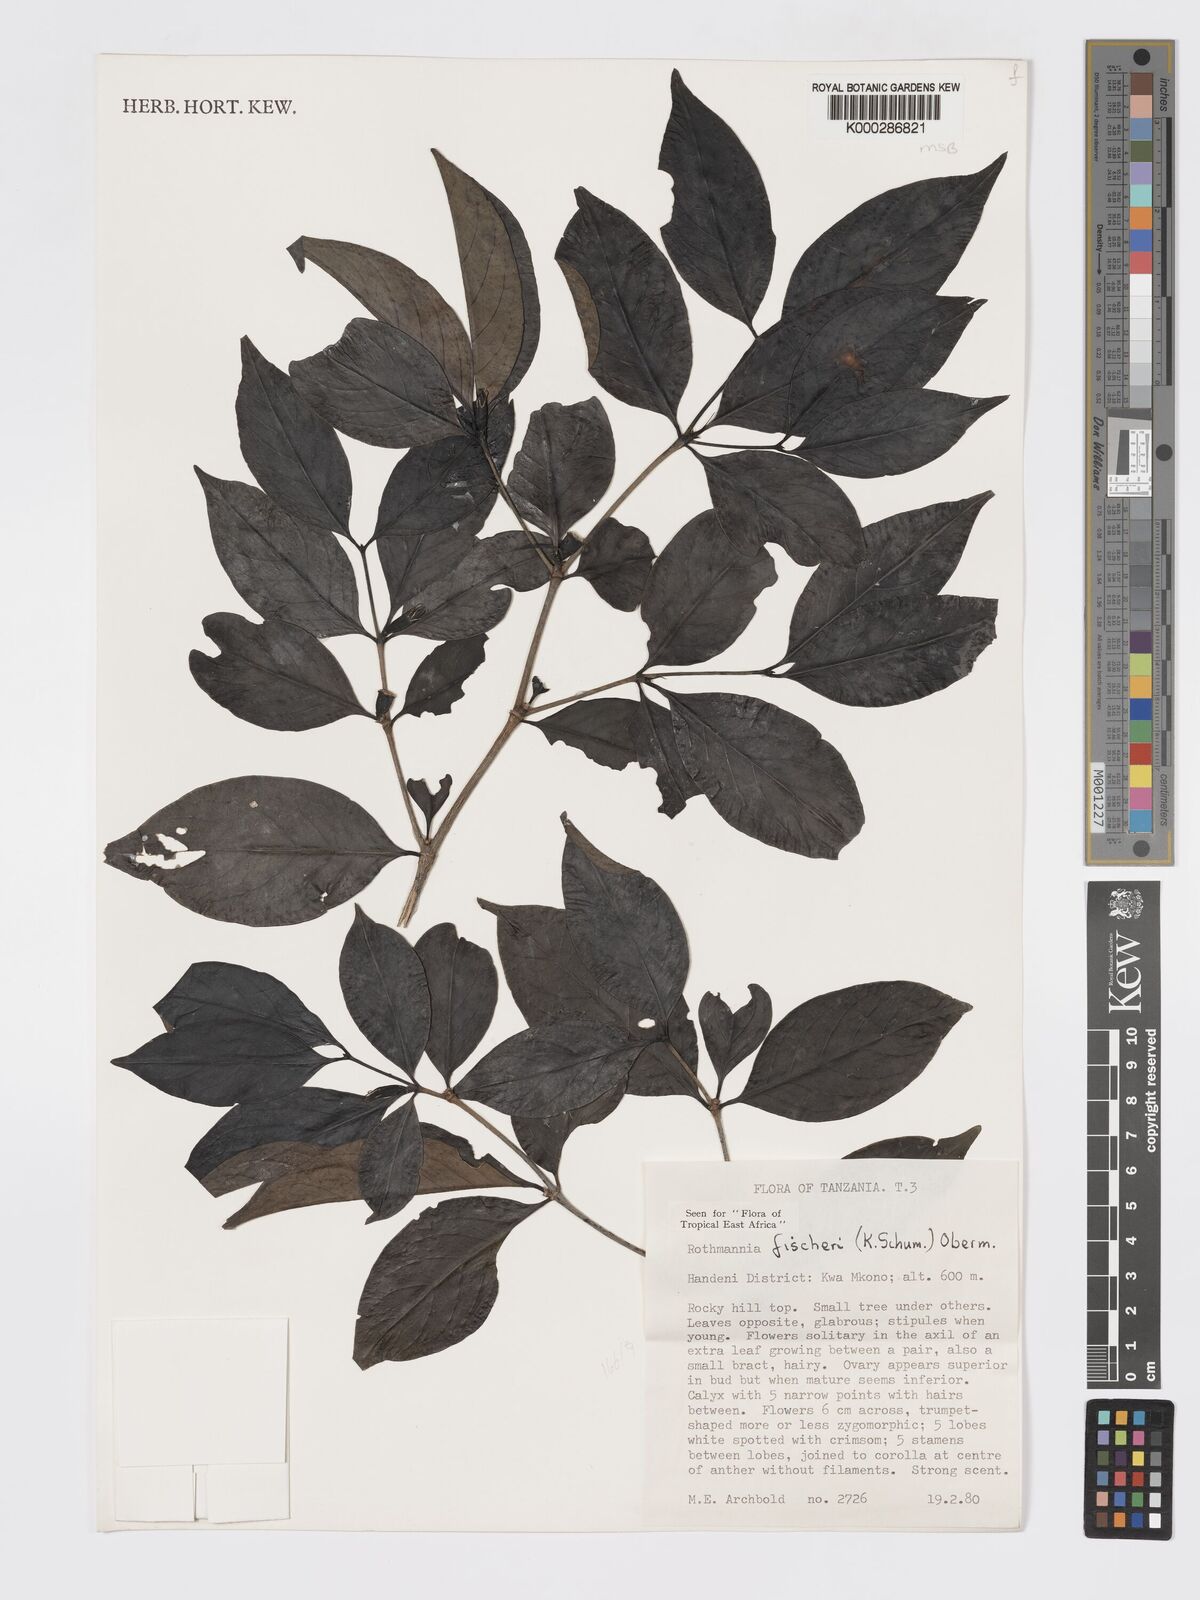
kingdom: Plantae
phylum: Tracheophyta
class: Magnoliopsida
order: Gentianales
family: Rubiaceae
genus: Rothmannia
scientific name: Rothmannia ravae
